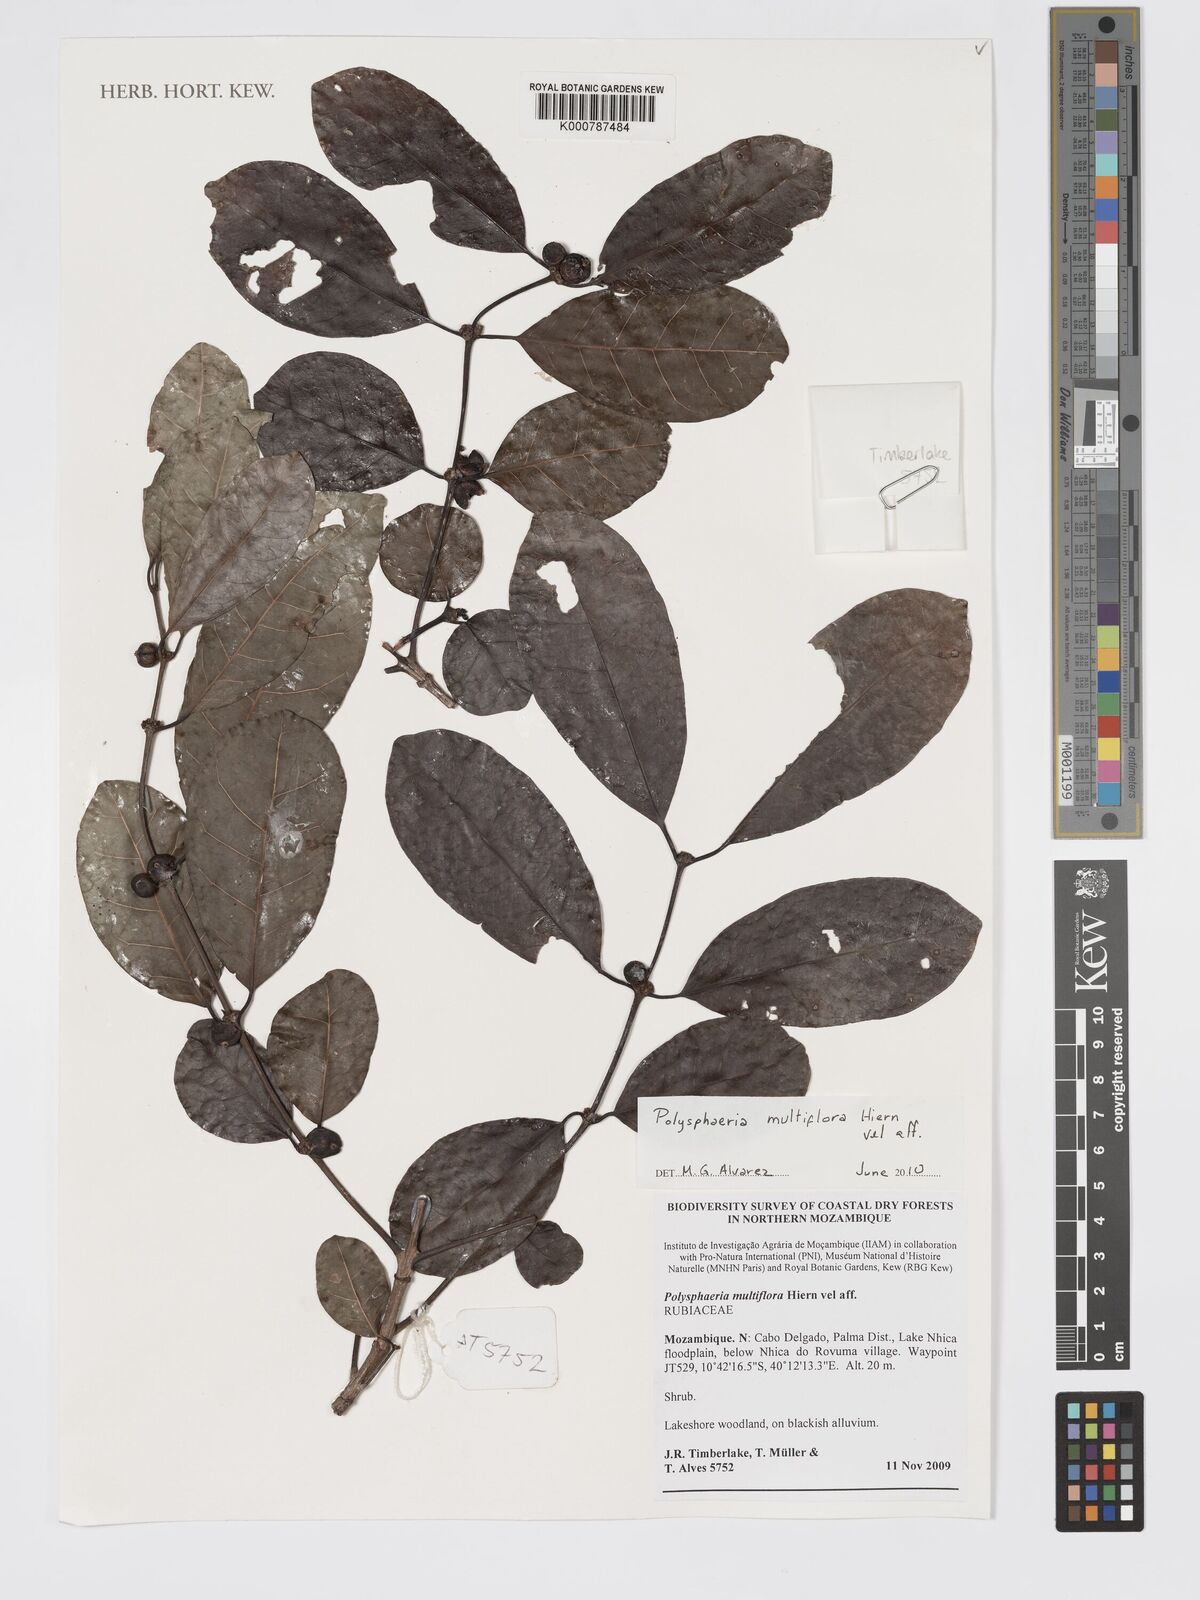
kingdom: Plantae
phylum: Tracheophyta
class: Magnoliopsida
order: Gentianales
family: Rubiaceae
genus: Polysphaeria
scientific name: Polysphaeria multiflora
